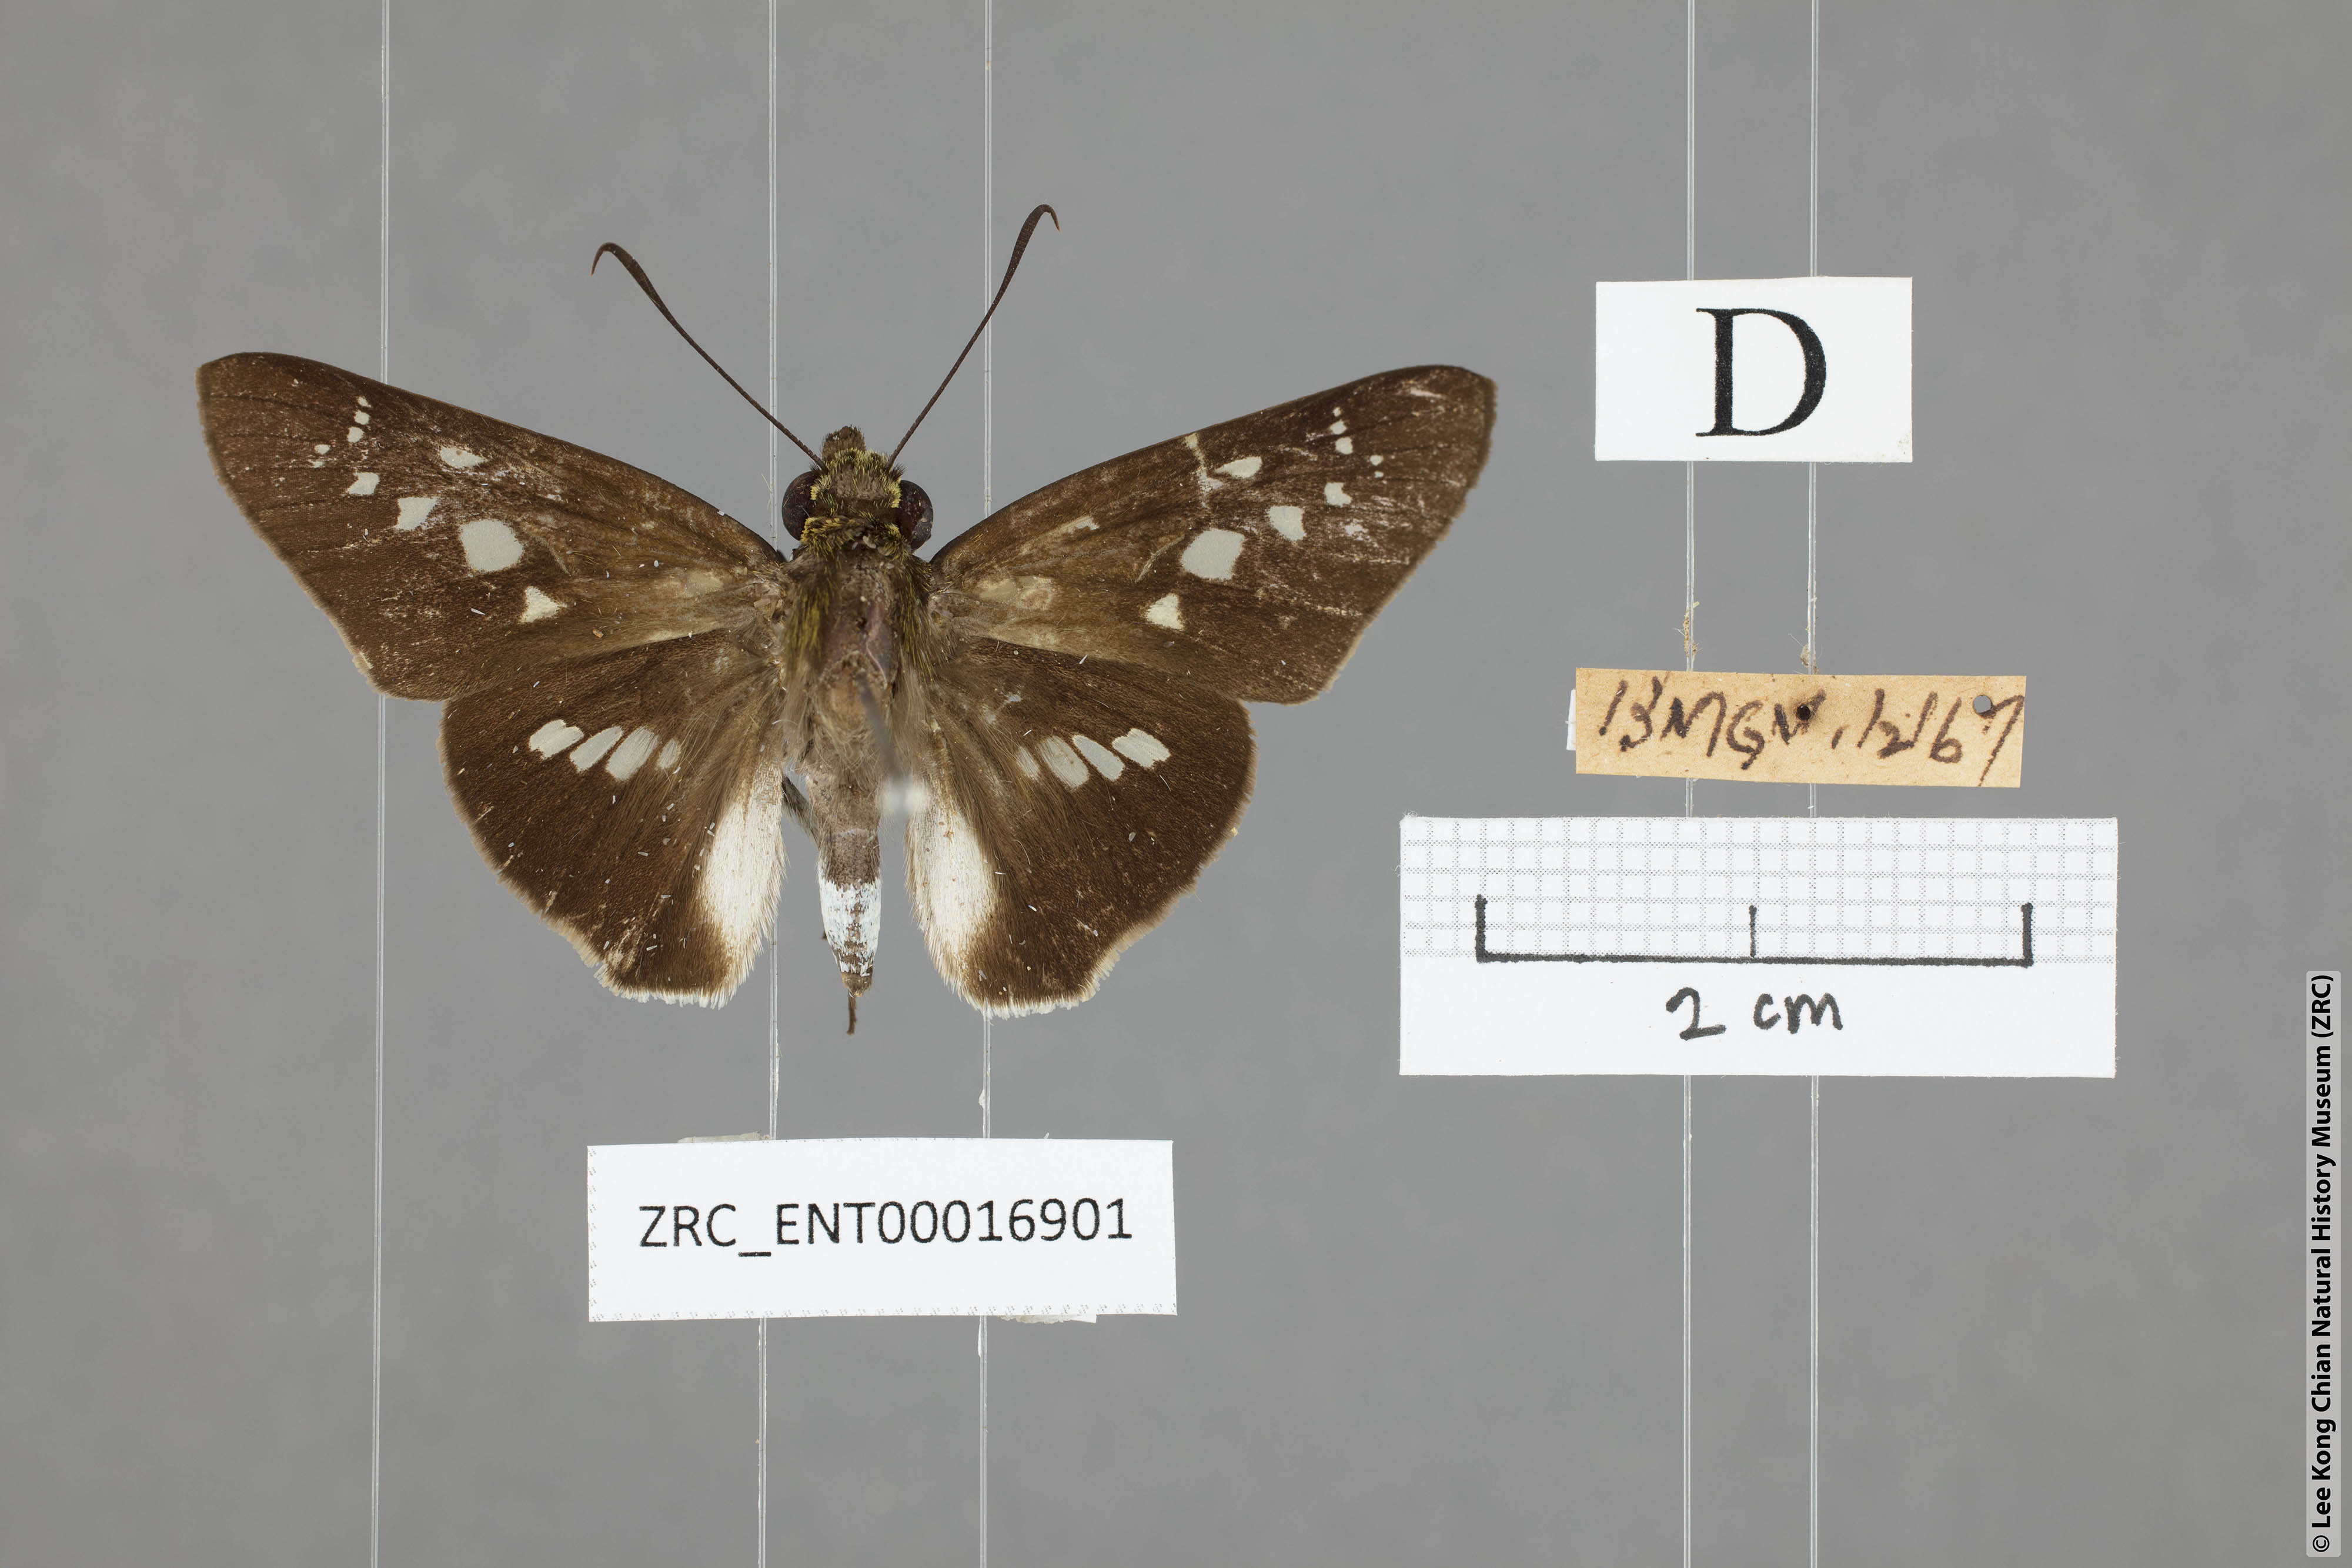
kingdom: Animalia
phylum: Arthropoda
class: Insecta
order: Lepidoptera
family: Hesperiidae
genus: Eetion
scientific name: Eetion elia
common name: White spotted palmer
